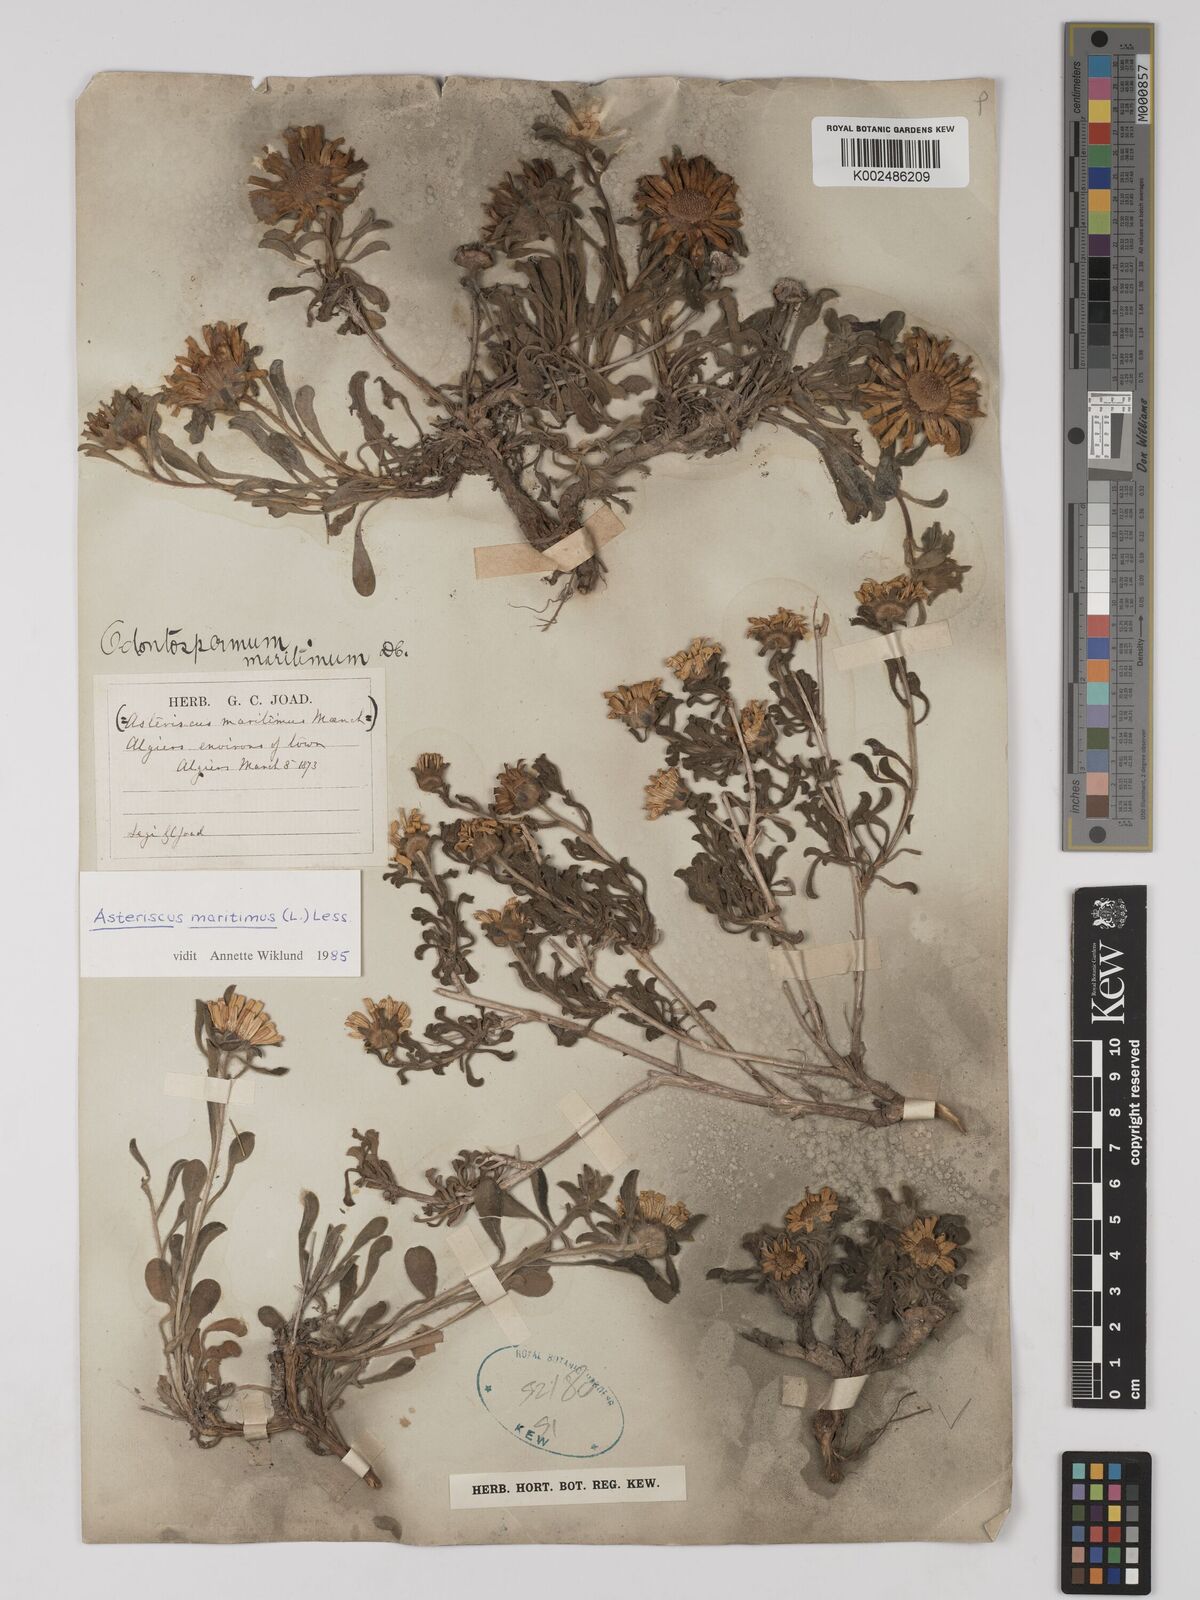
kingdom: Plantae
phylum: Tracheophyta
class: Magnoliopsida
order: Asterales
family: Asteraceae
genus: Pallenis
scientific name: Pallenis maritima
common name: Golden coin daisy
